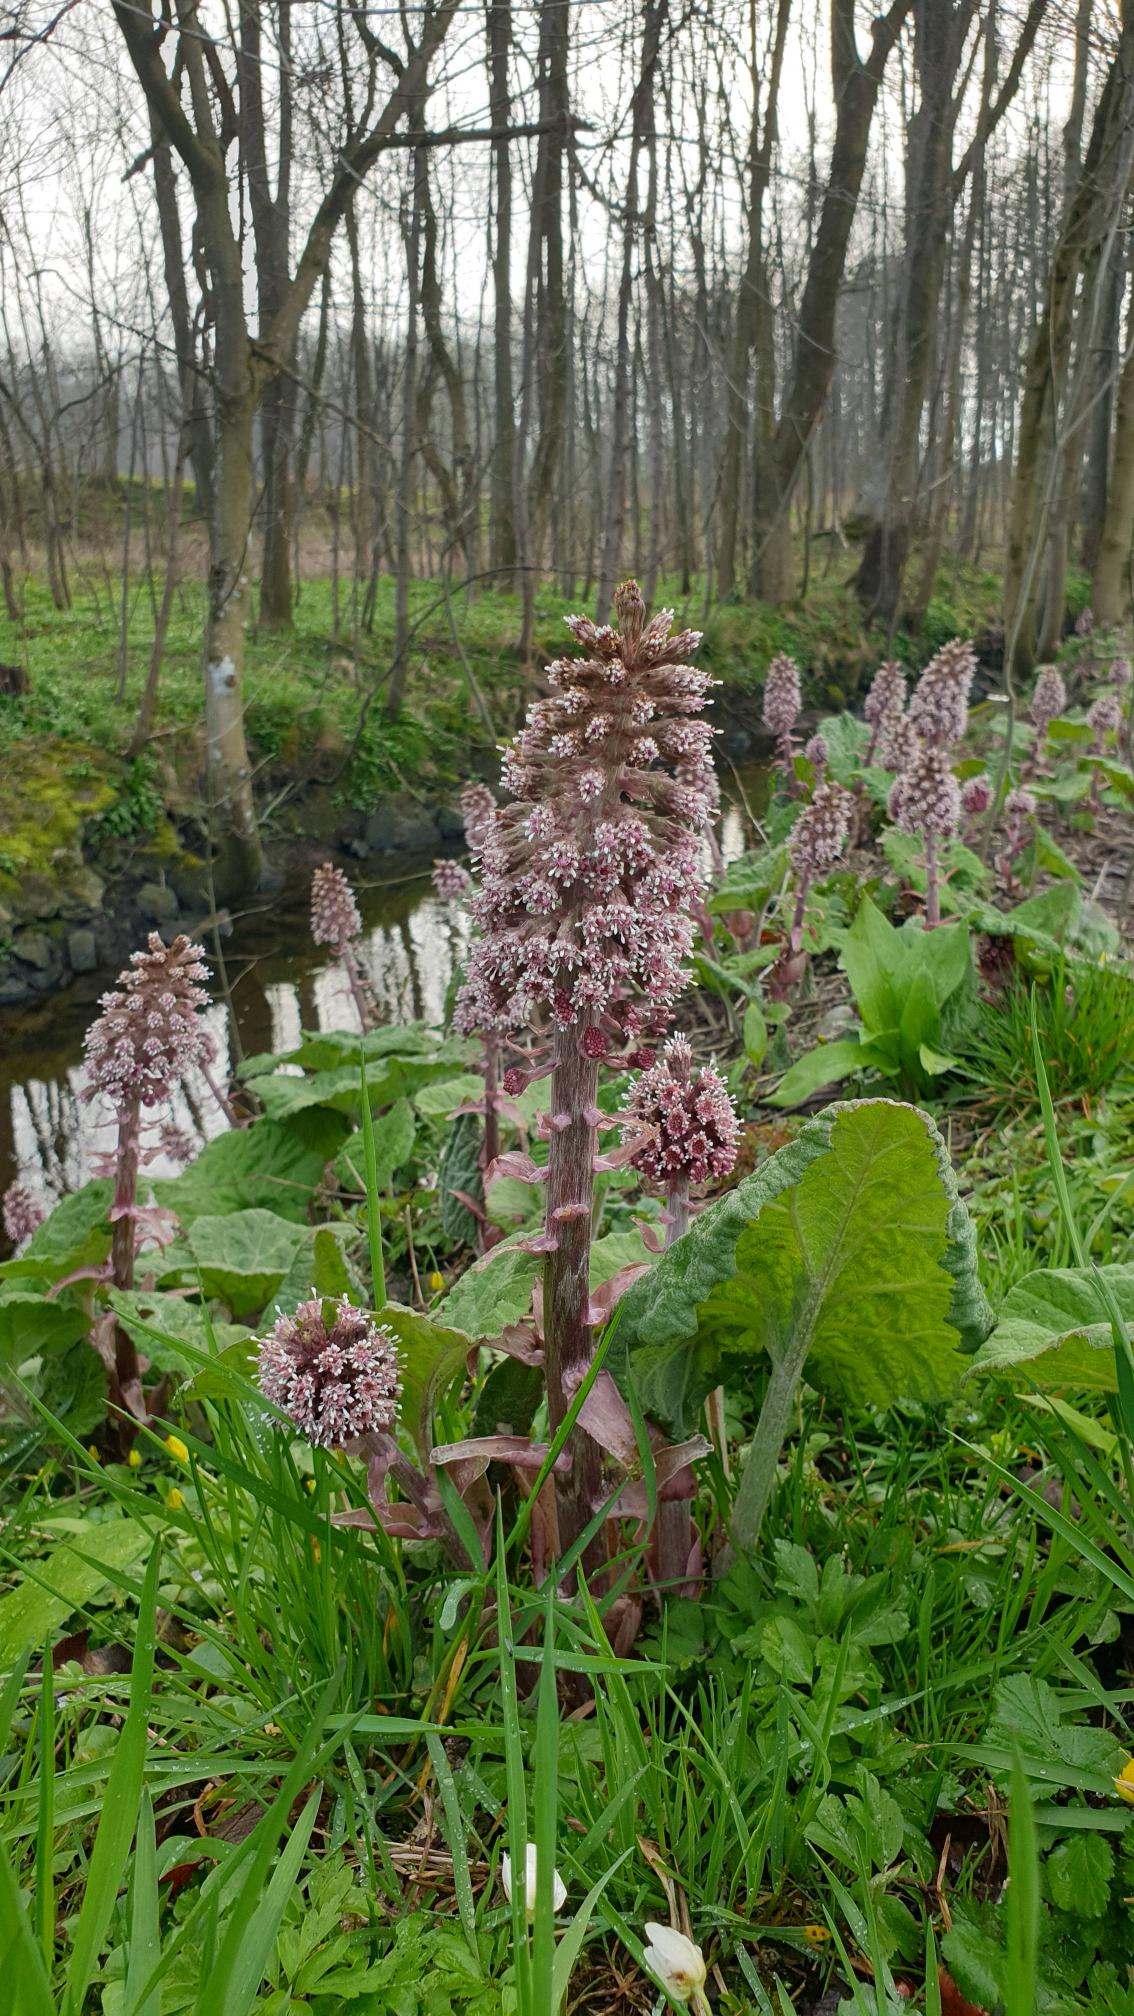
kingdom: Plantae
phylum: Tracheophyta
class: Magnoliopsida
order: Asterales
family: Asteraceae
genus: Petasites
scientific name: Petasites hybridus
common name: Rød hestehov
